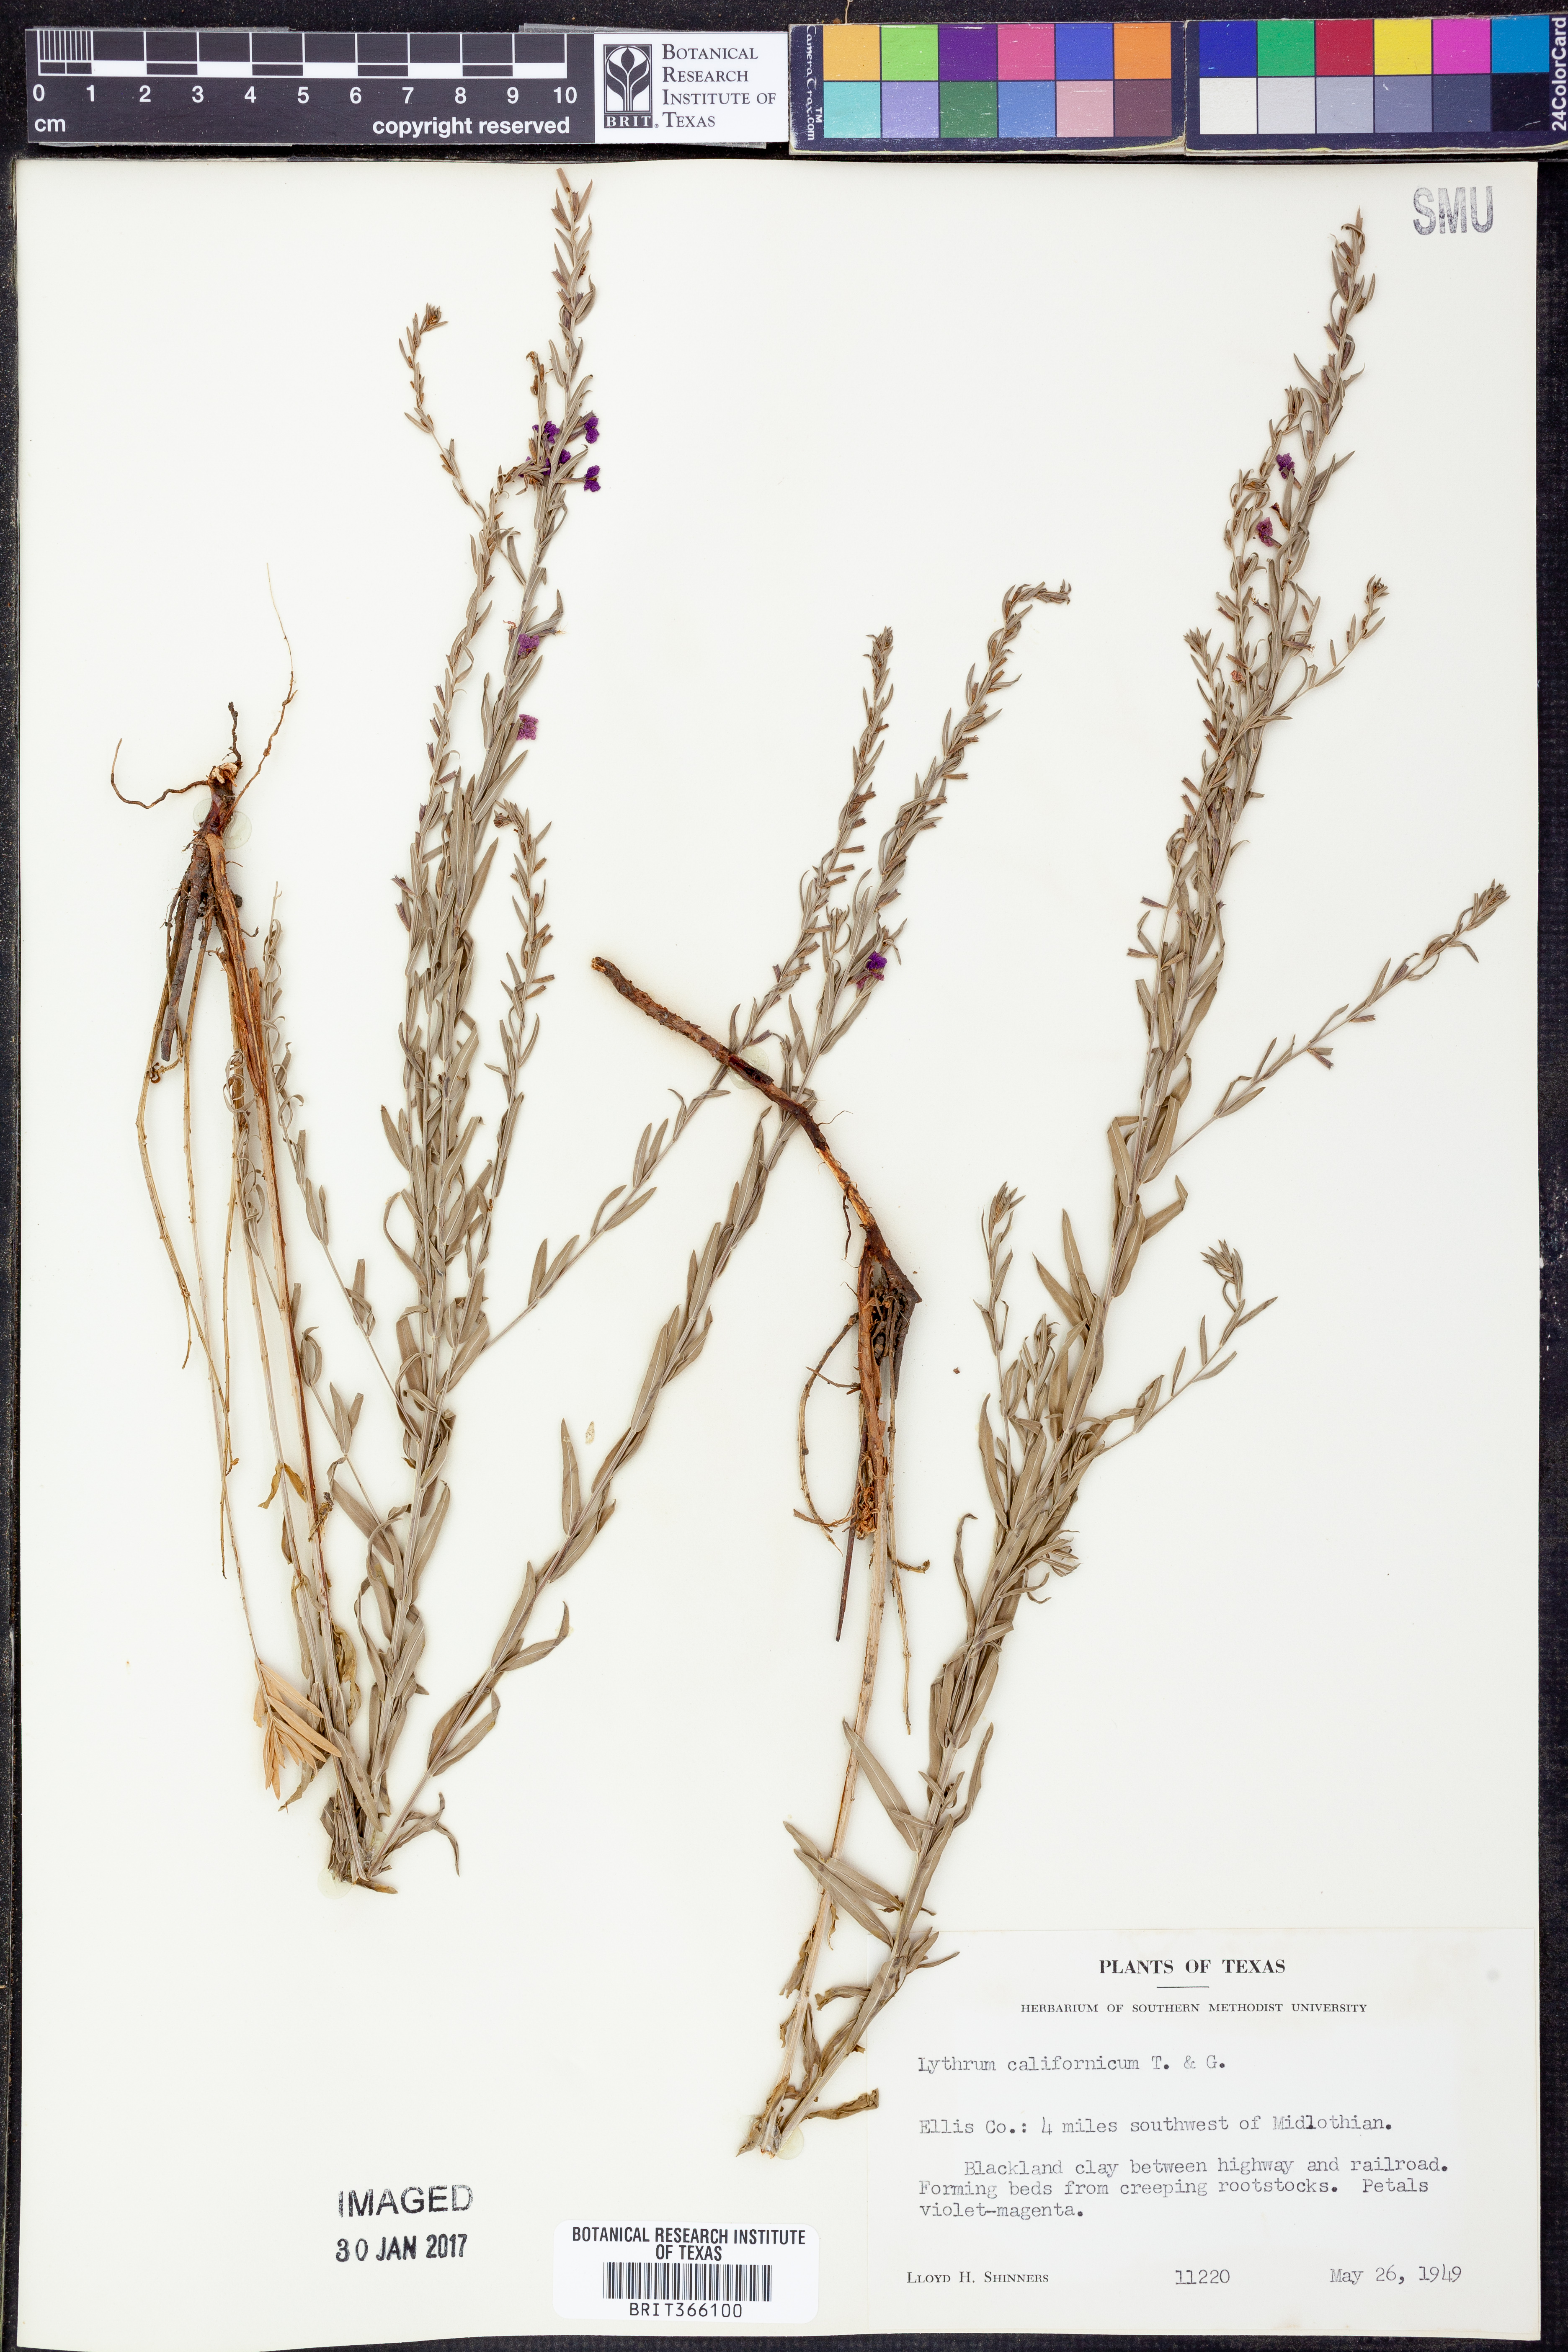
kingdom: Plantae
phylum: Tracheophyta
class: Magnoliopsida
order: Myrtales
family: Lythraceae
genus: Lythrum
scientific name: Lythrum californicum
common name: California loosestrife
